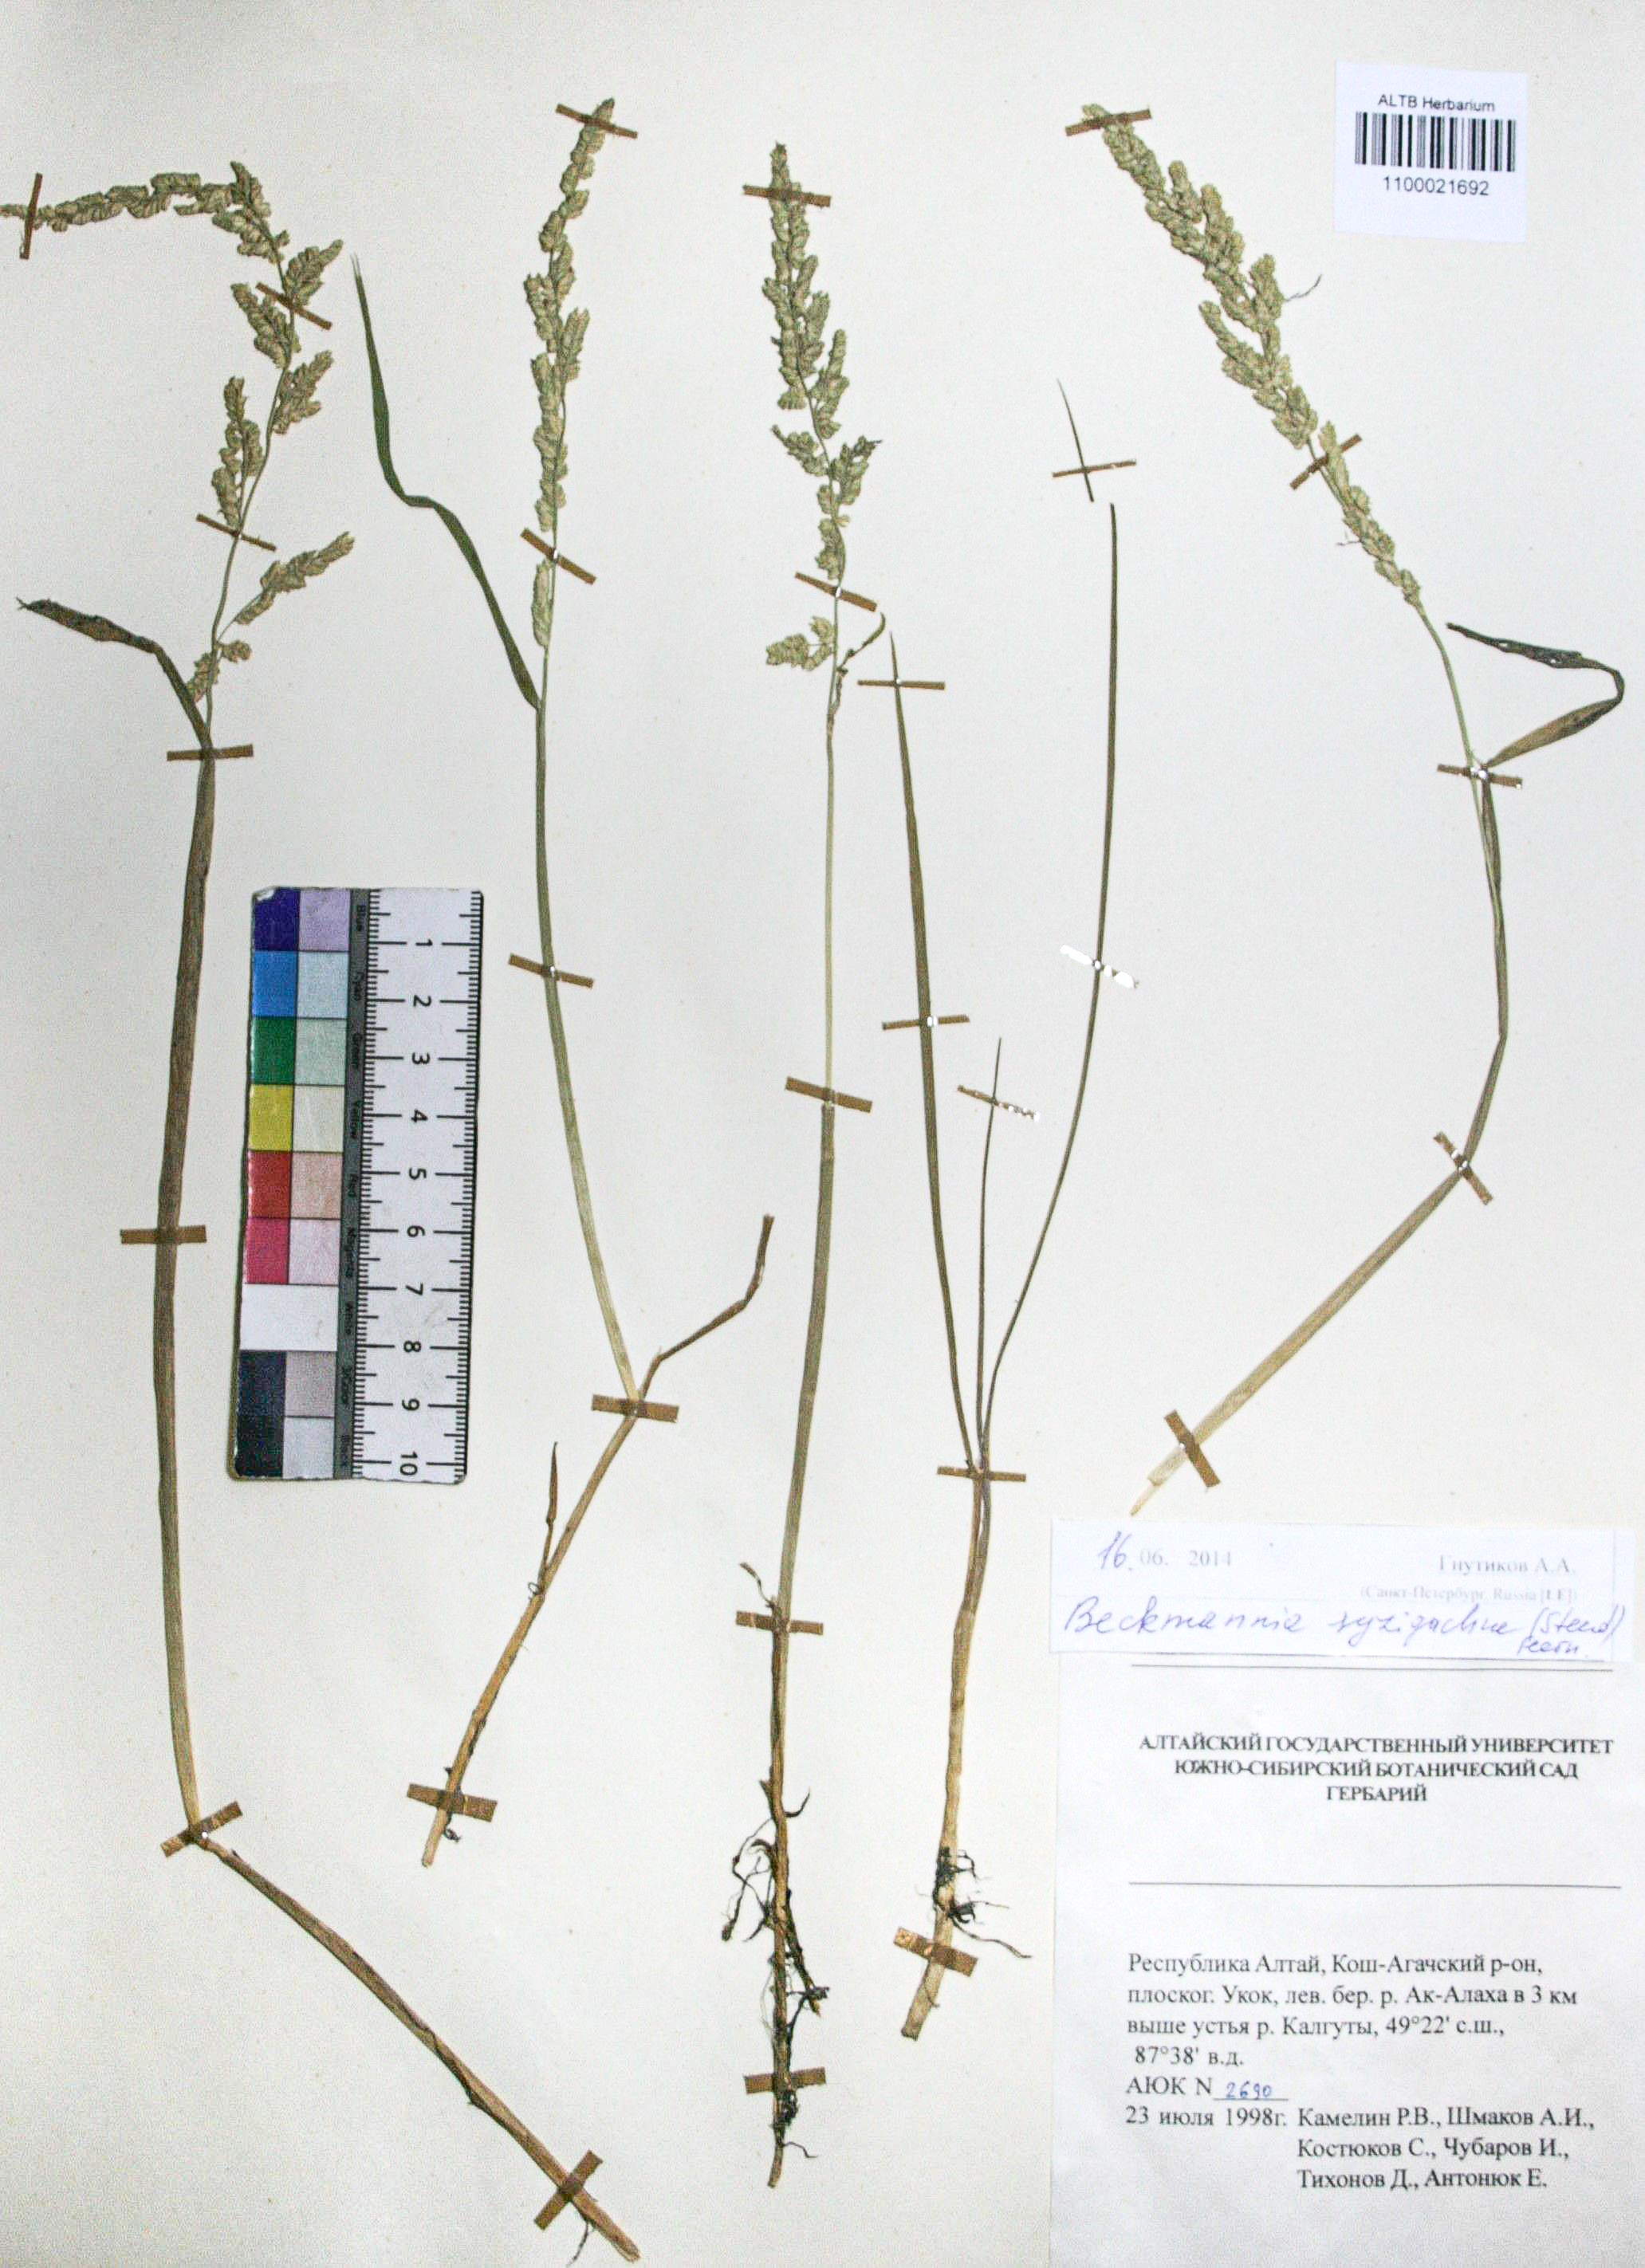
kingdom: Plantae
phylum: Tracheophyta
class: Liliopsida
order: Poales
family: Poaceae
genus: Calamagrostis
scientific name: Calamagrostis purpurea
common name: Scandinavian small-reed
